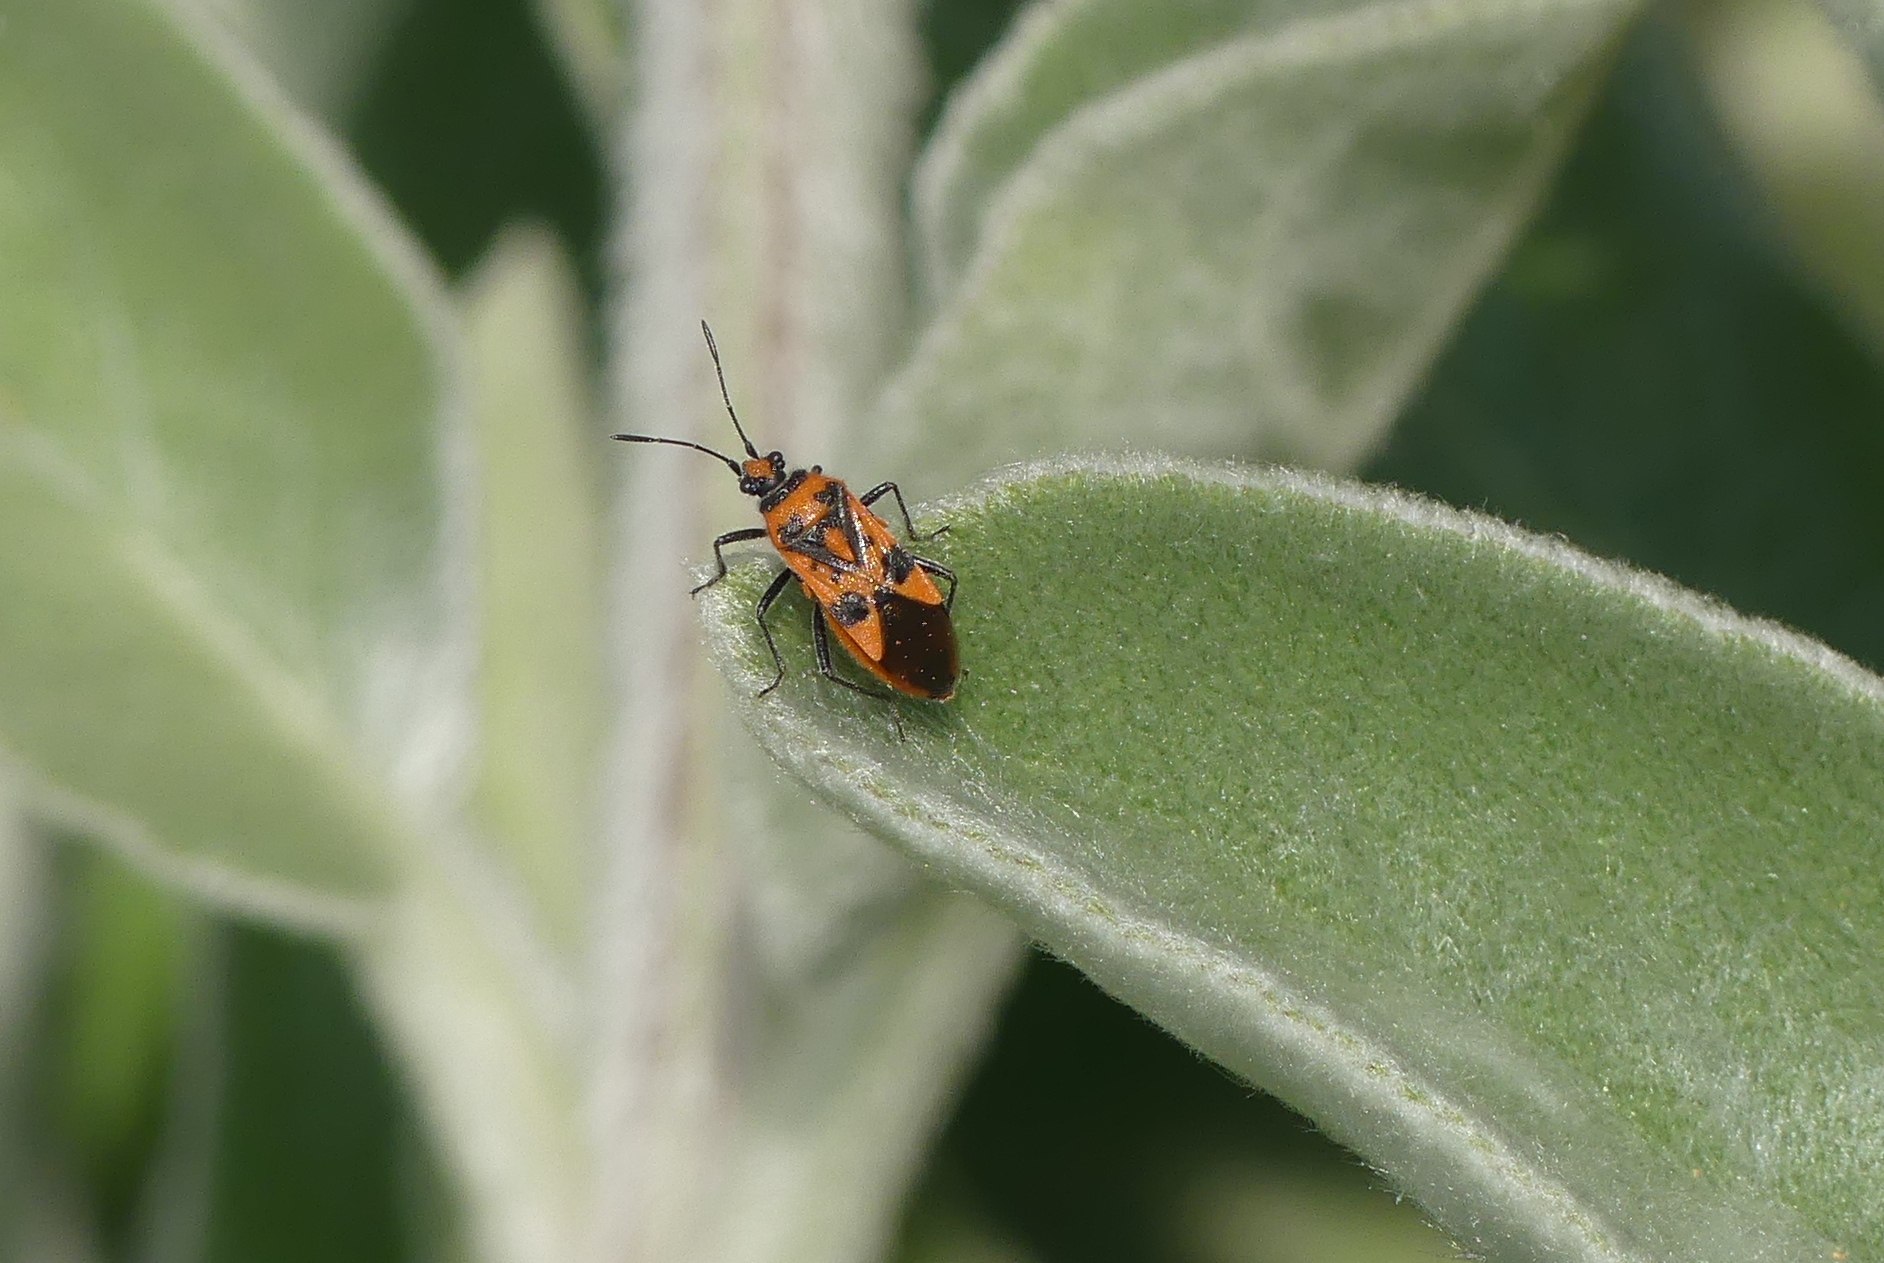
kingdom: Animalia
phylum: Arthropoda
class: Insecta
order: Hemiptera
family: Rhopalidae
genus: Corizus
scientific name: Corizus hyoscyami
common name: Rød kanttæge
